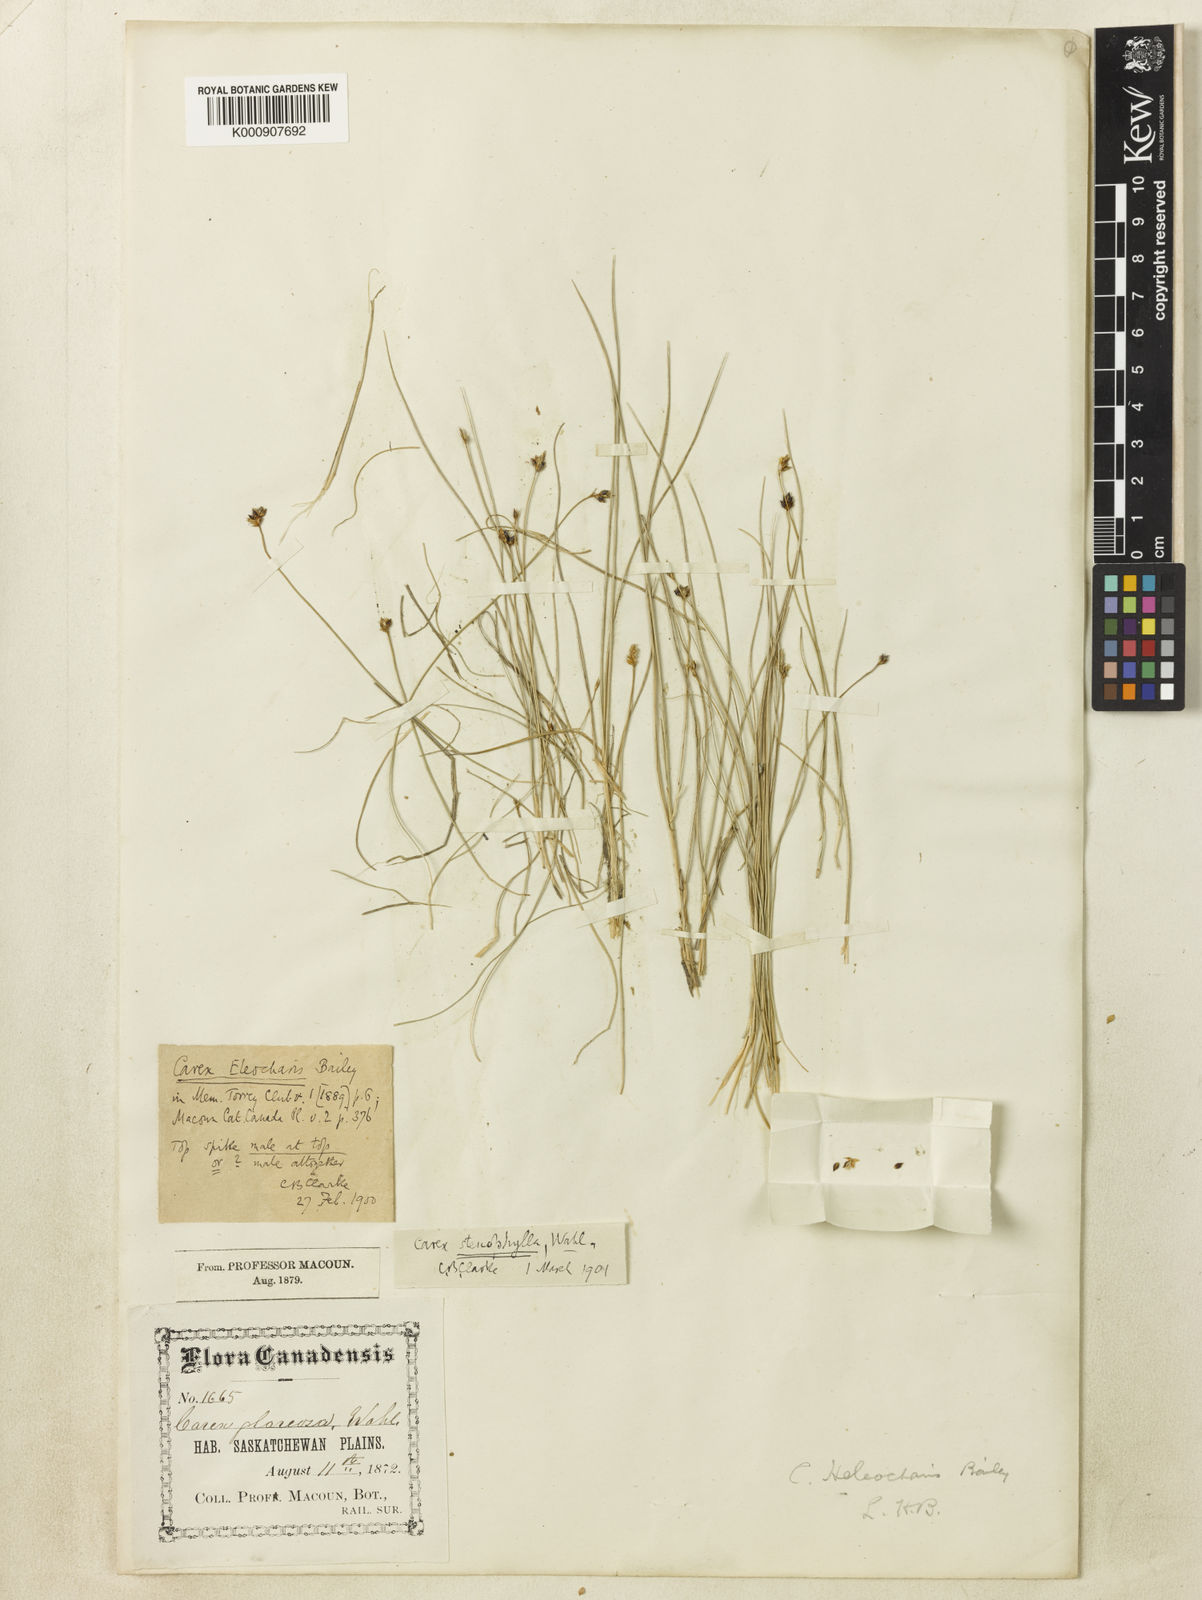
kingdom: Plantae
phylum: Tracheophyta
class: Liliopsida
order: Poales
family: Cyperaceae
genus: Carex
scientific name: Carex duriuscula
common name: Involute-leaved sedge
